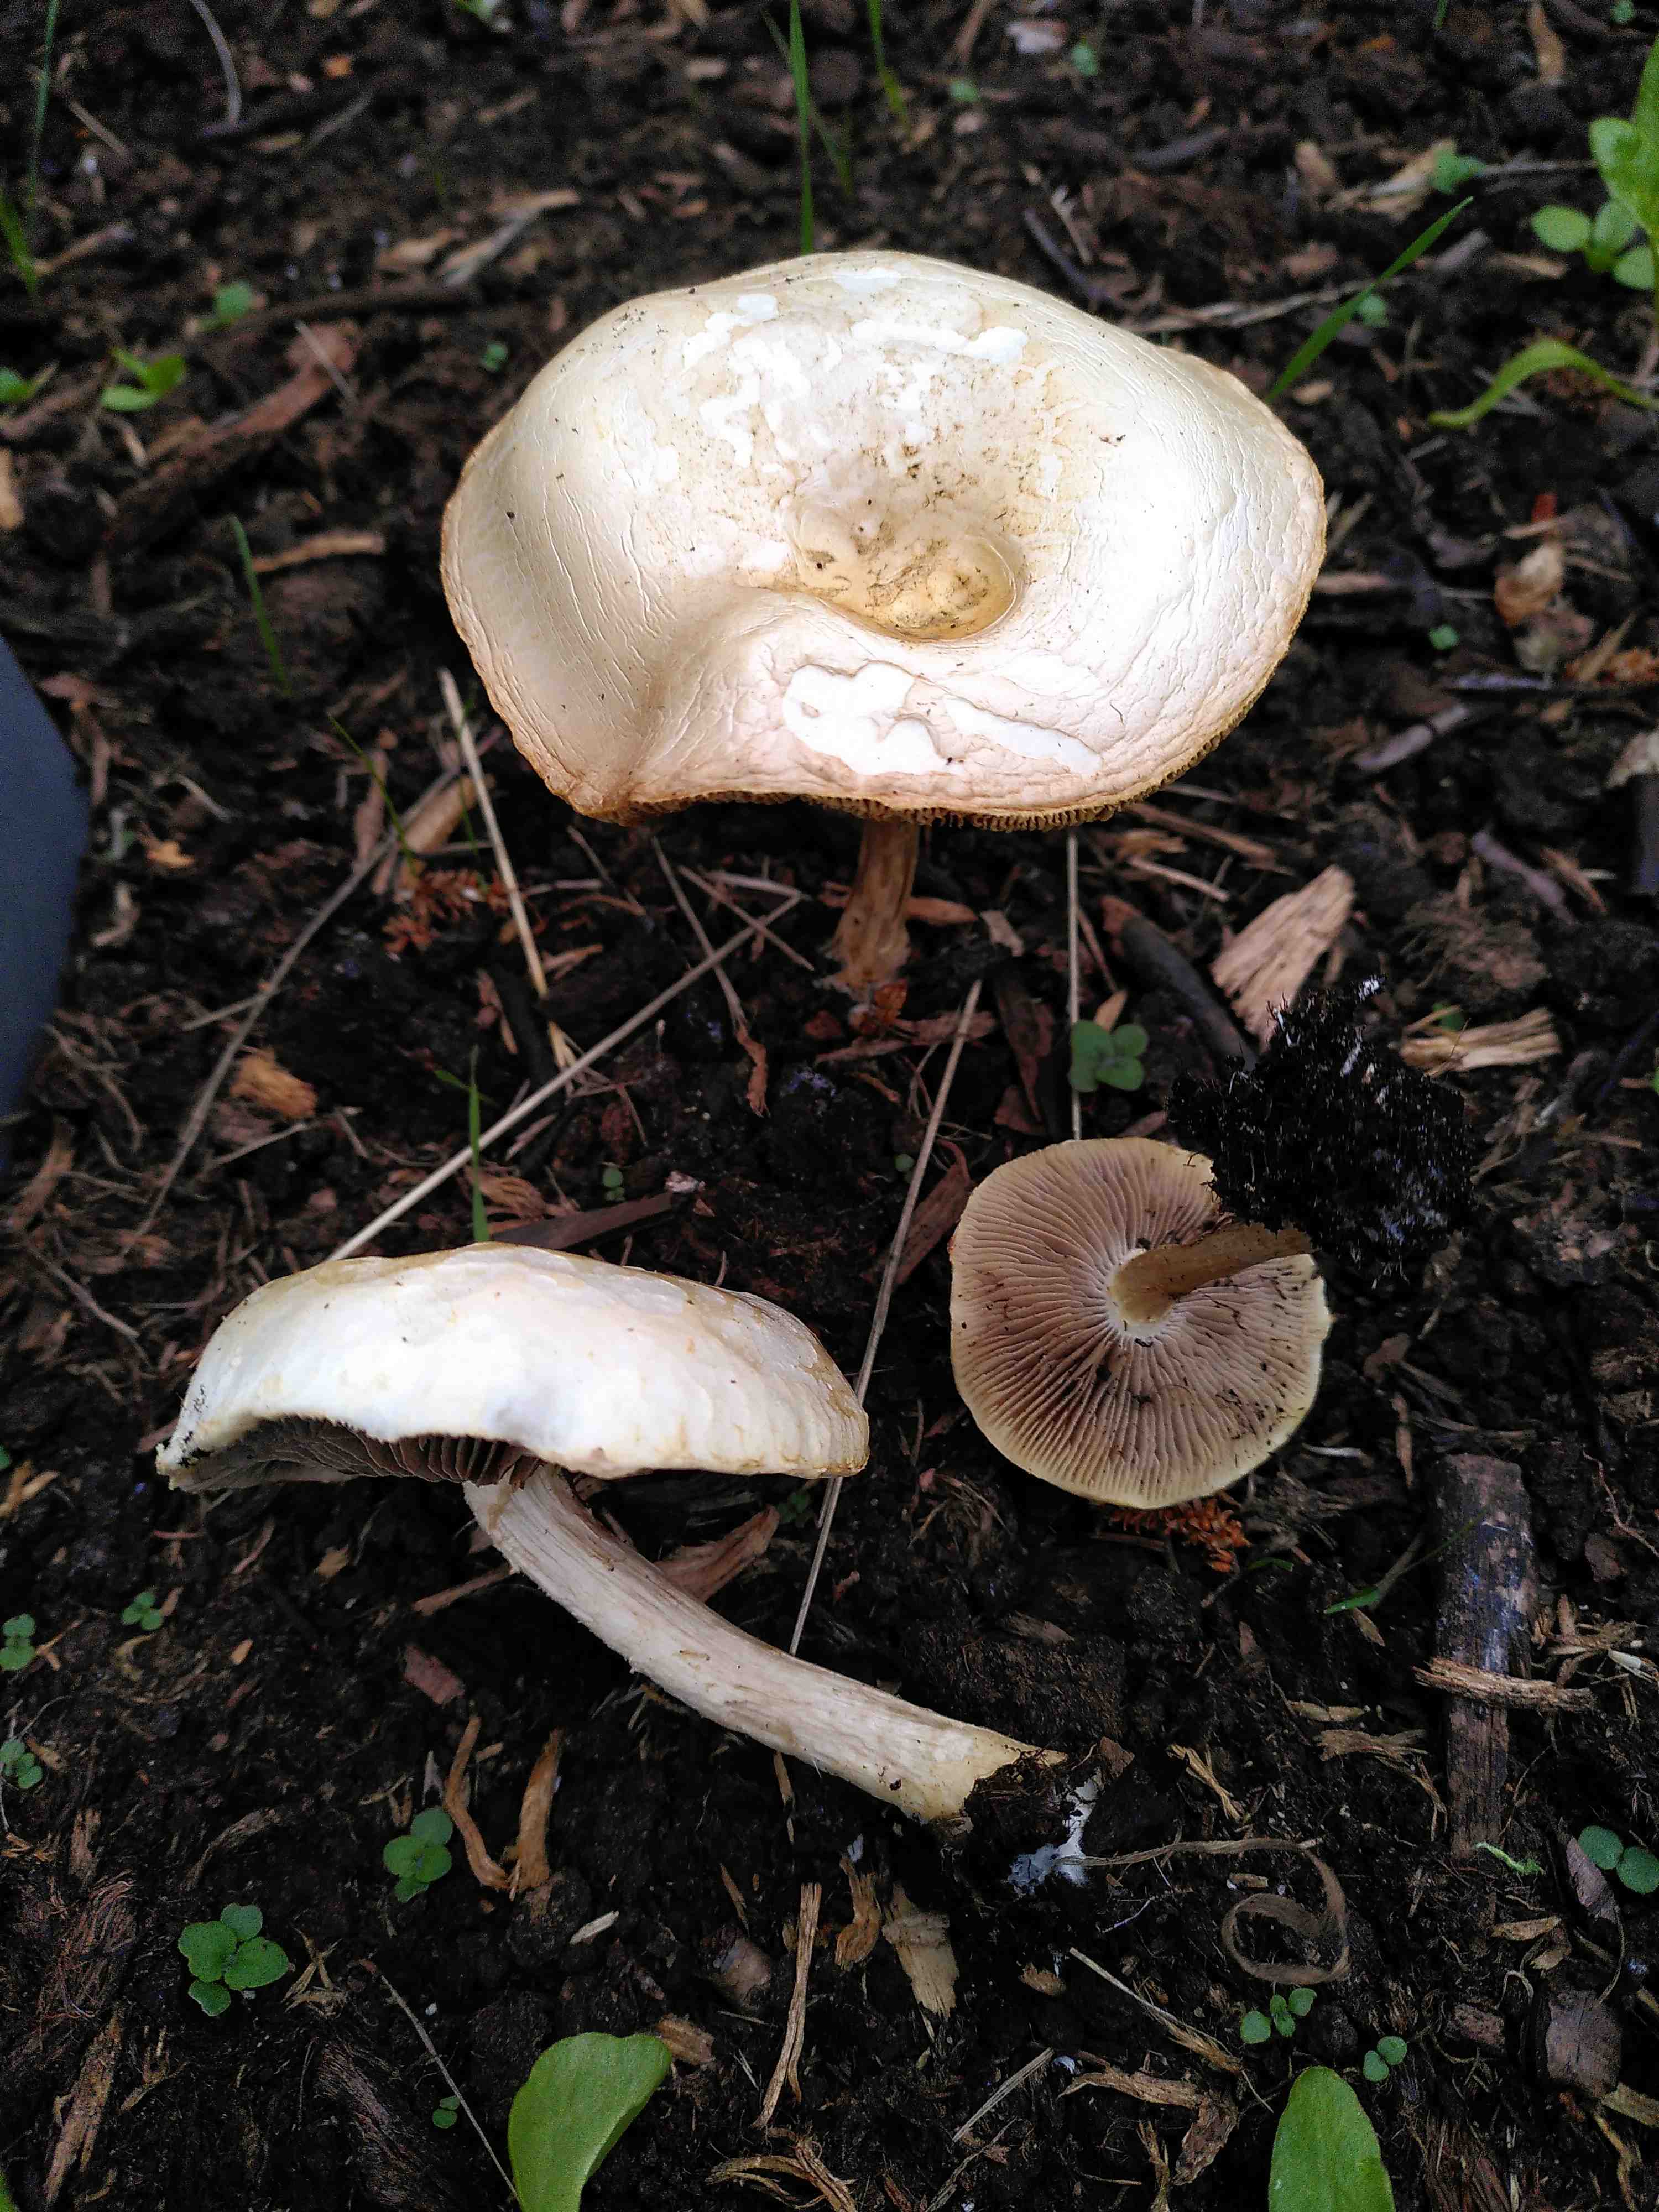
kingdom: Fungi
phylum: Basidiomycota
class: Agaricomycetes
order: Agaricales
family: Strophariaceae
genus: Agrocybe
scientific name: Agrocybe
